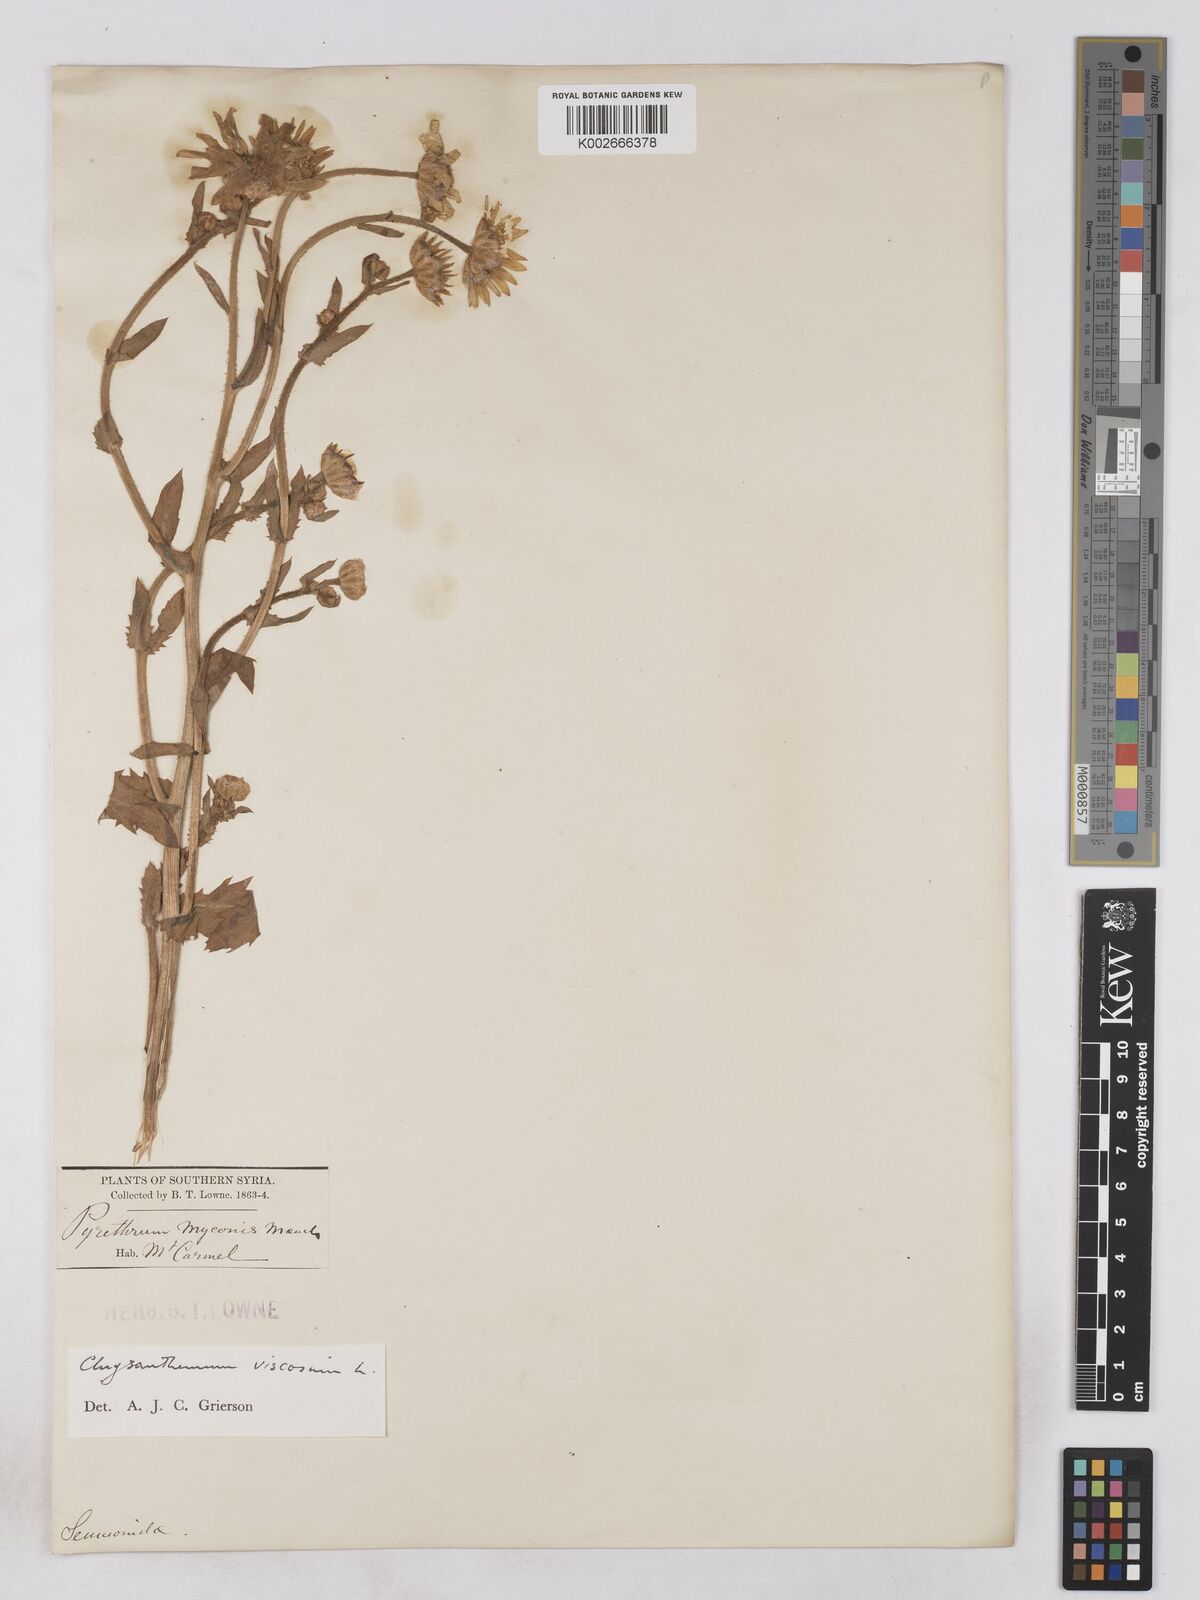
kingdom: Plantae
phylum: Tracheophyta
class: Magnoliopsida
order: Asterales
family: Asteraceae
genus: Heteranthemis
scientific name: Heteranthemis
